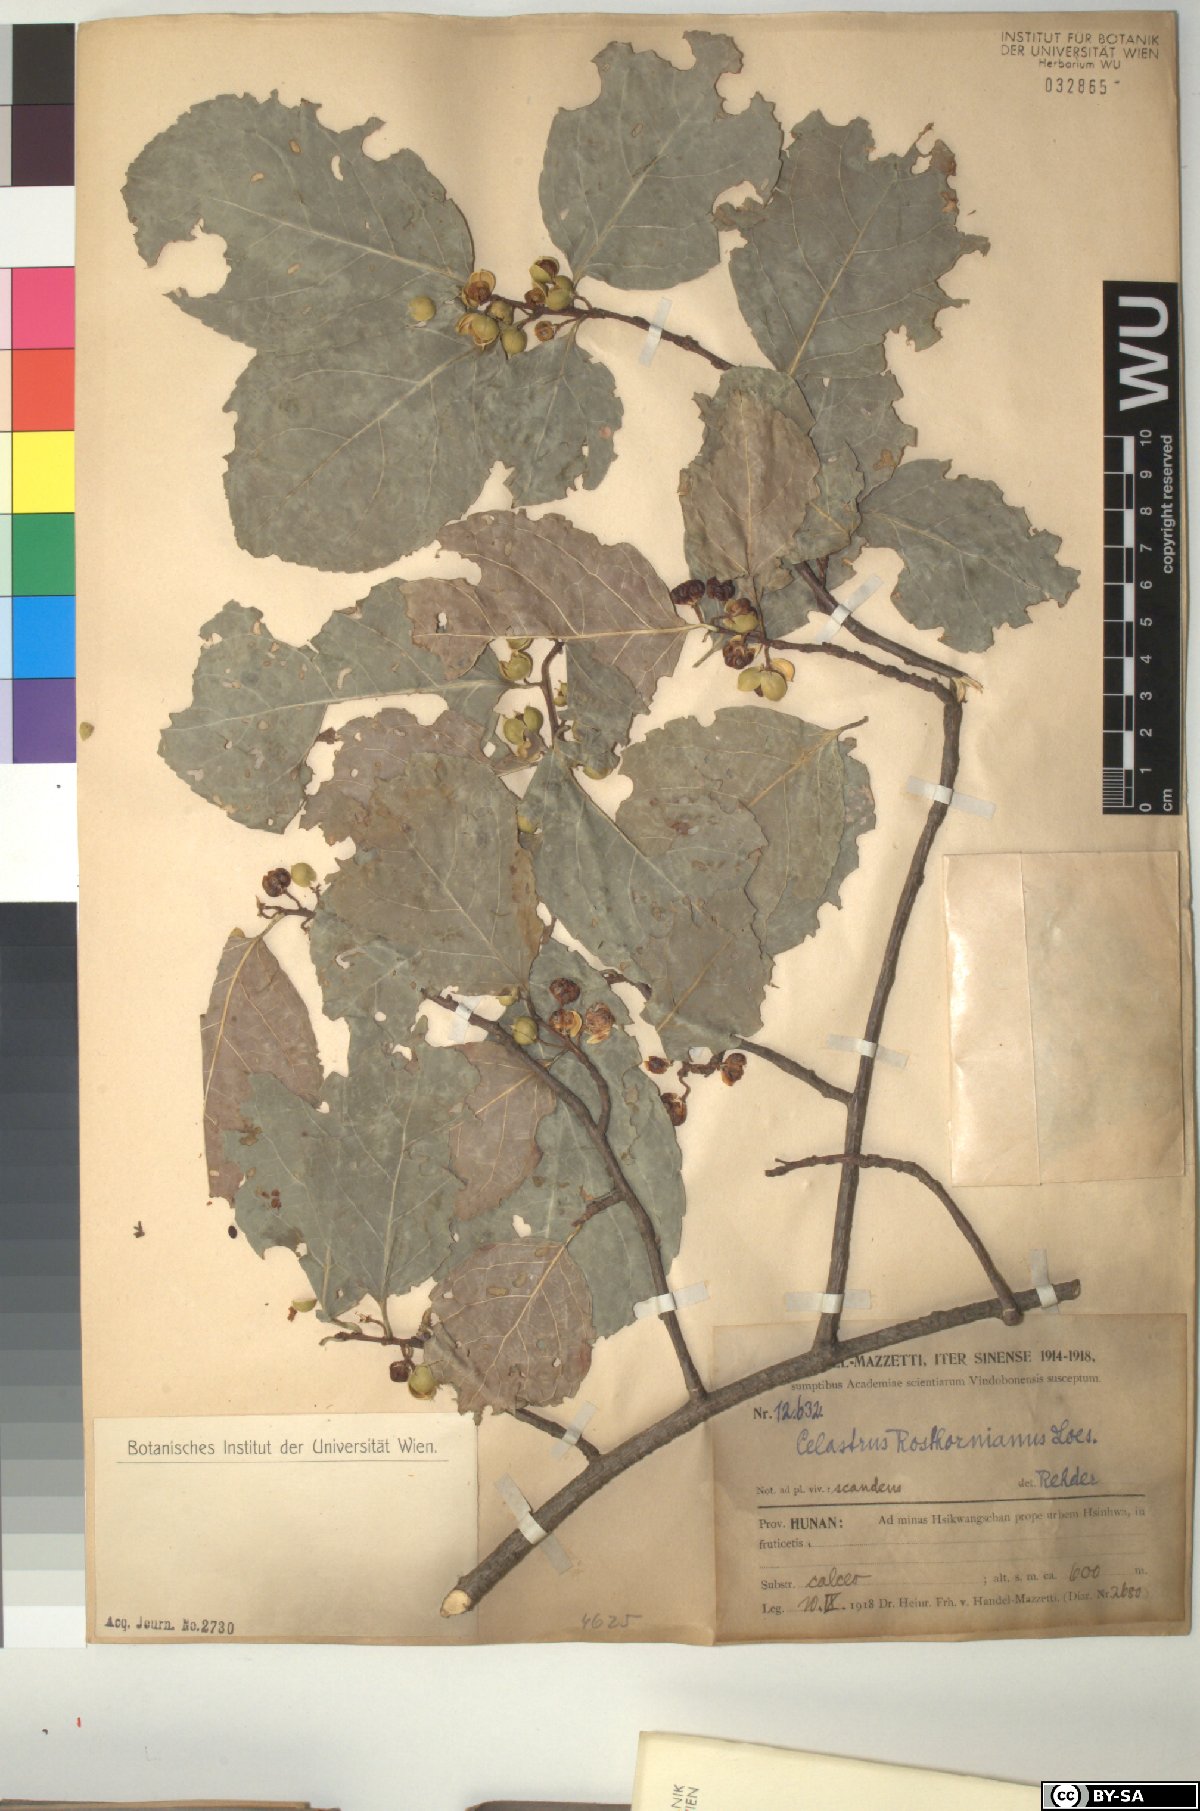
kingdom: Plantae
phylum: Tracheophyta
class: Magnoliopsida
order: Celastrales
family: Celastraceae
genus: Celastrus
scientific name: Celastrus rosthornianus
